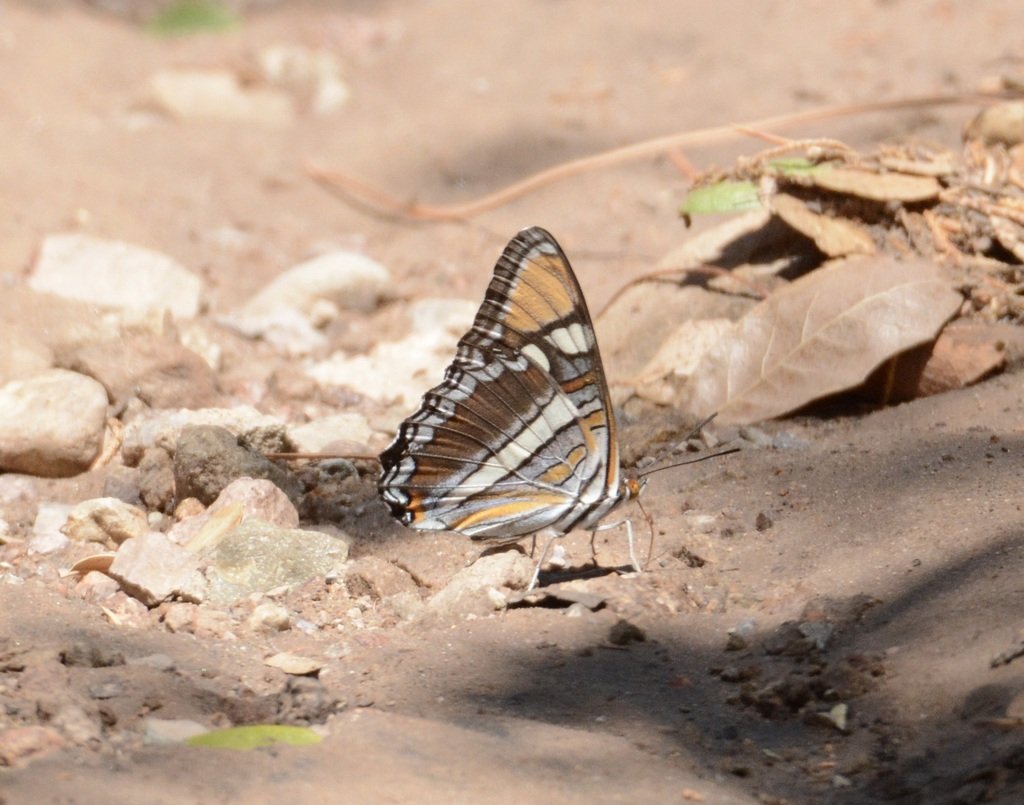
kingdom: Animalia
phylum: Arthropoda
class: Insecta
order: Lepidoptera
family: Nymphalidae
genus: Limenitis
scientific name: Limenitis bredowii
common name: Arizona Sister
